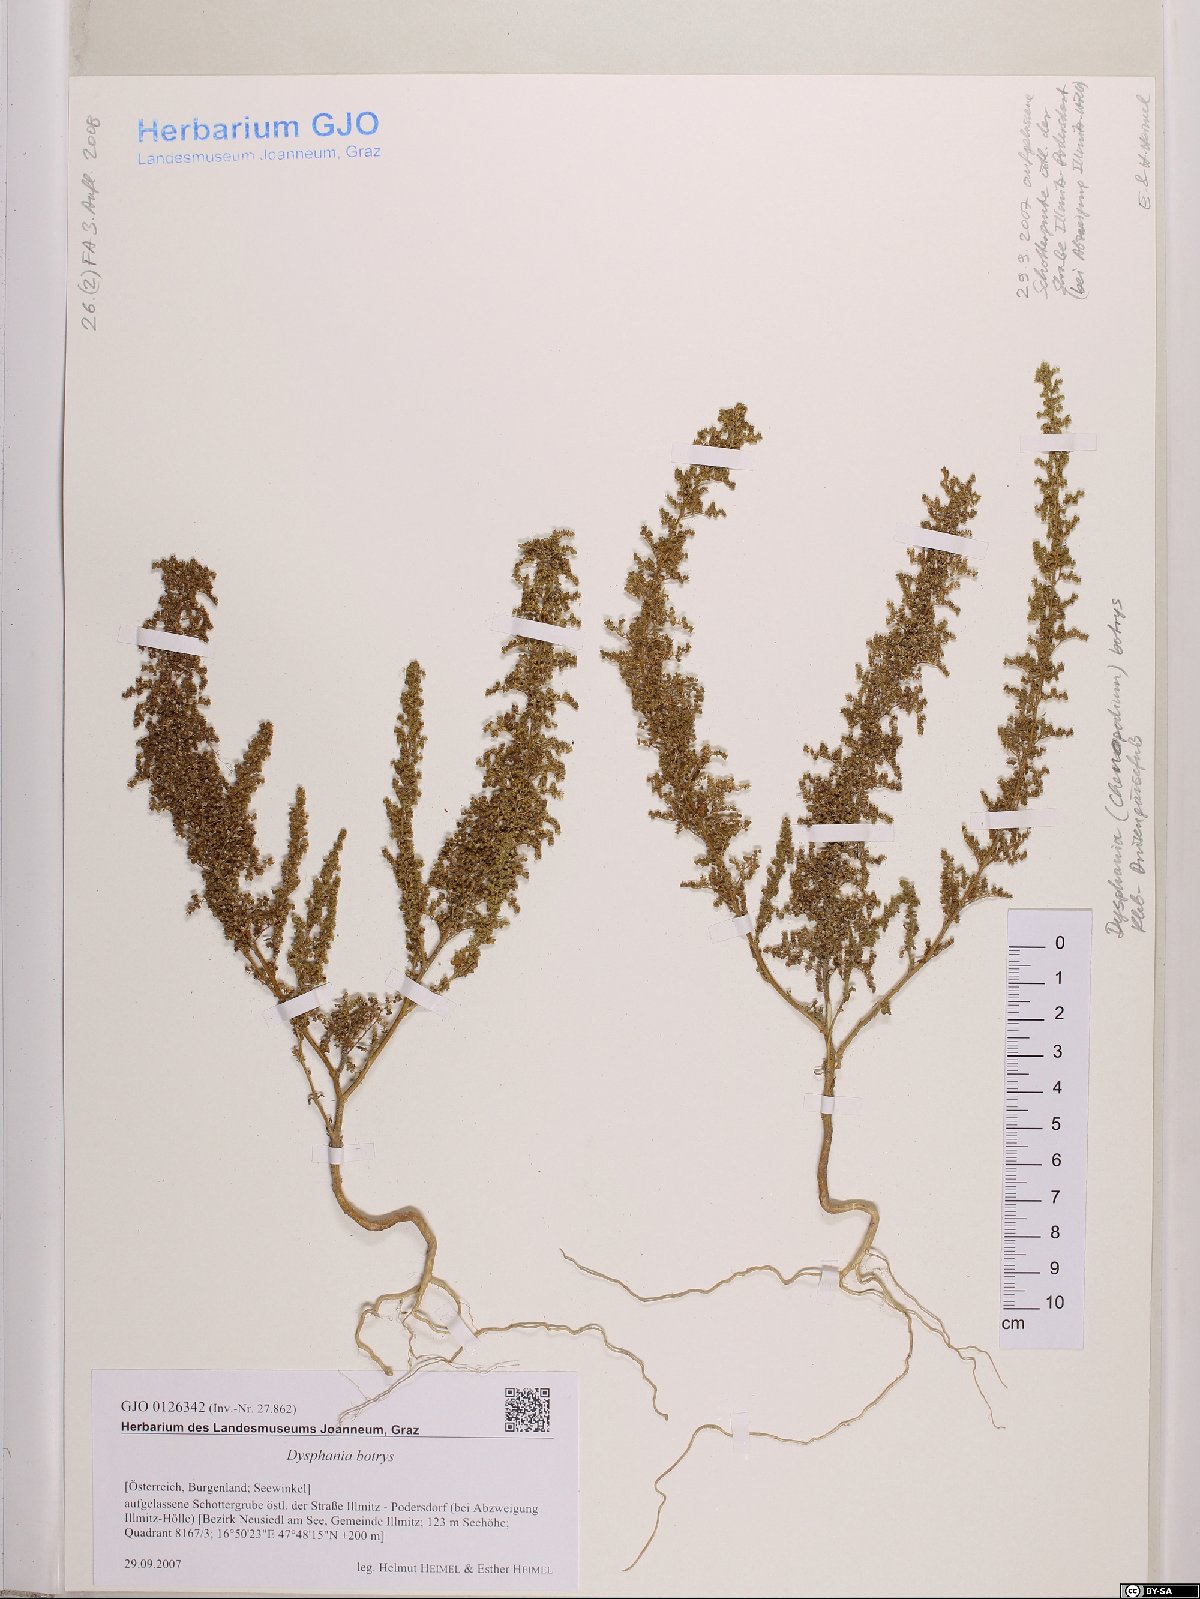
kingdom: Plantae
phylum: Tracheophyta
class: Magnoliopsida
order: Caryophyllales
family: Amaranthaceae
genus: Dysphania
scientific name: Dysphania botrys
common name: Feather-geranium
